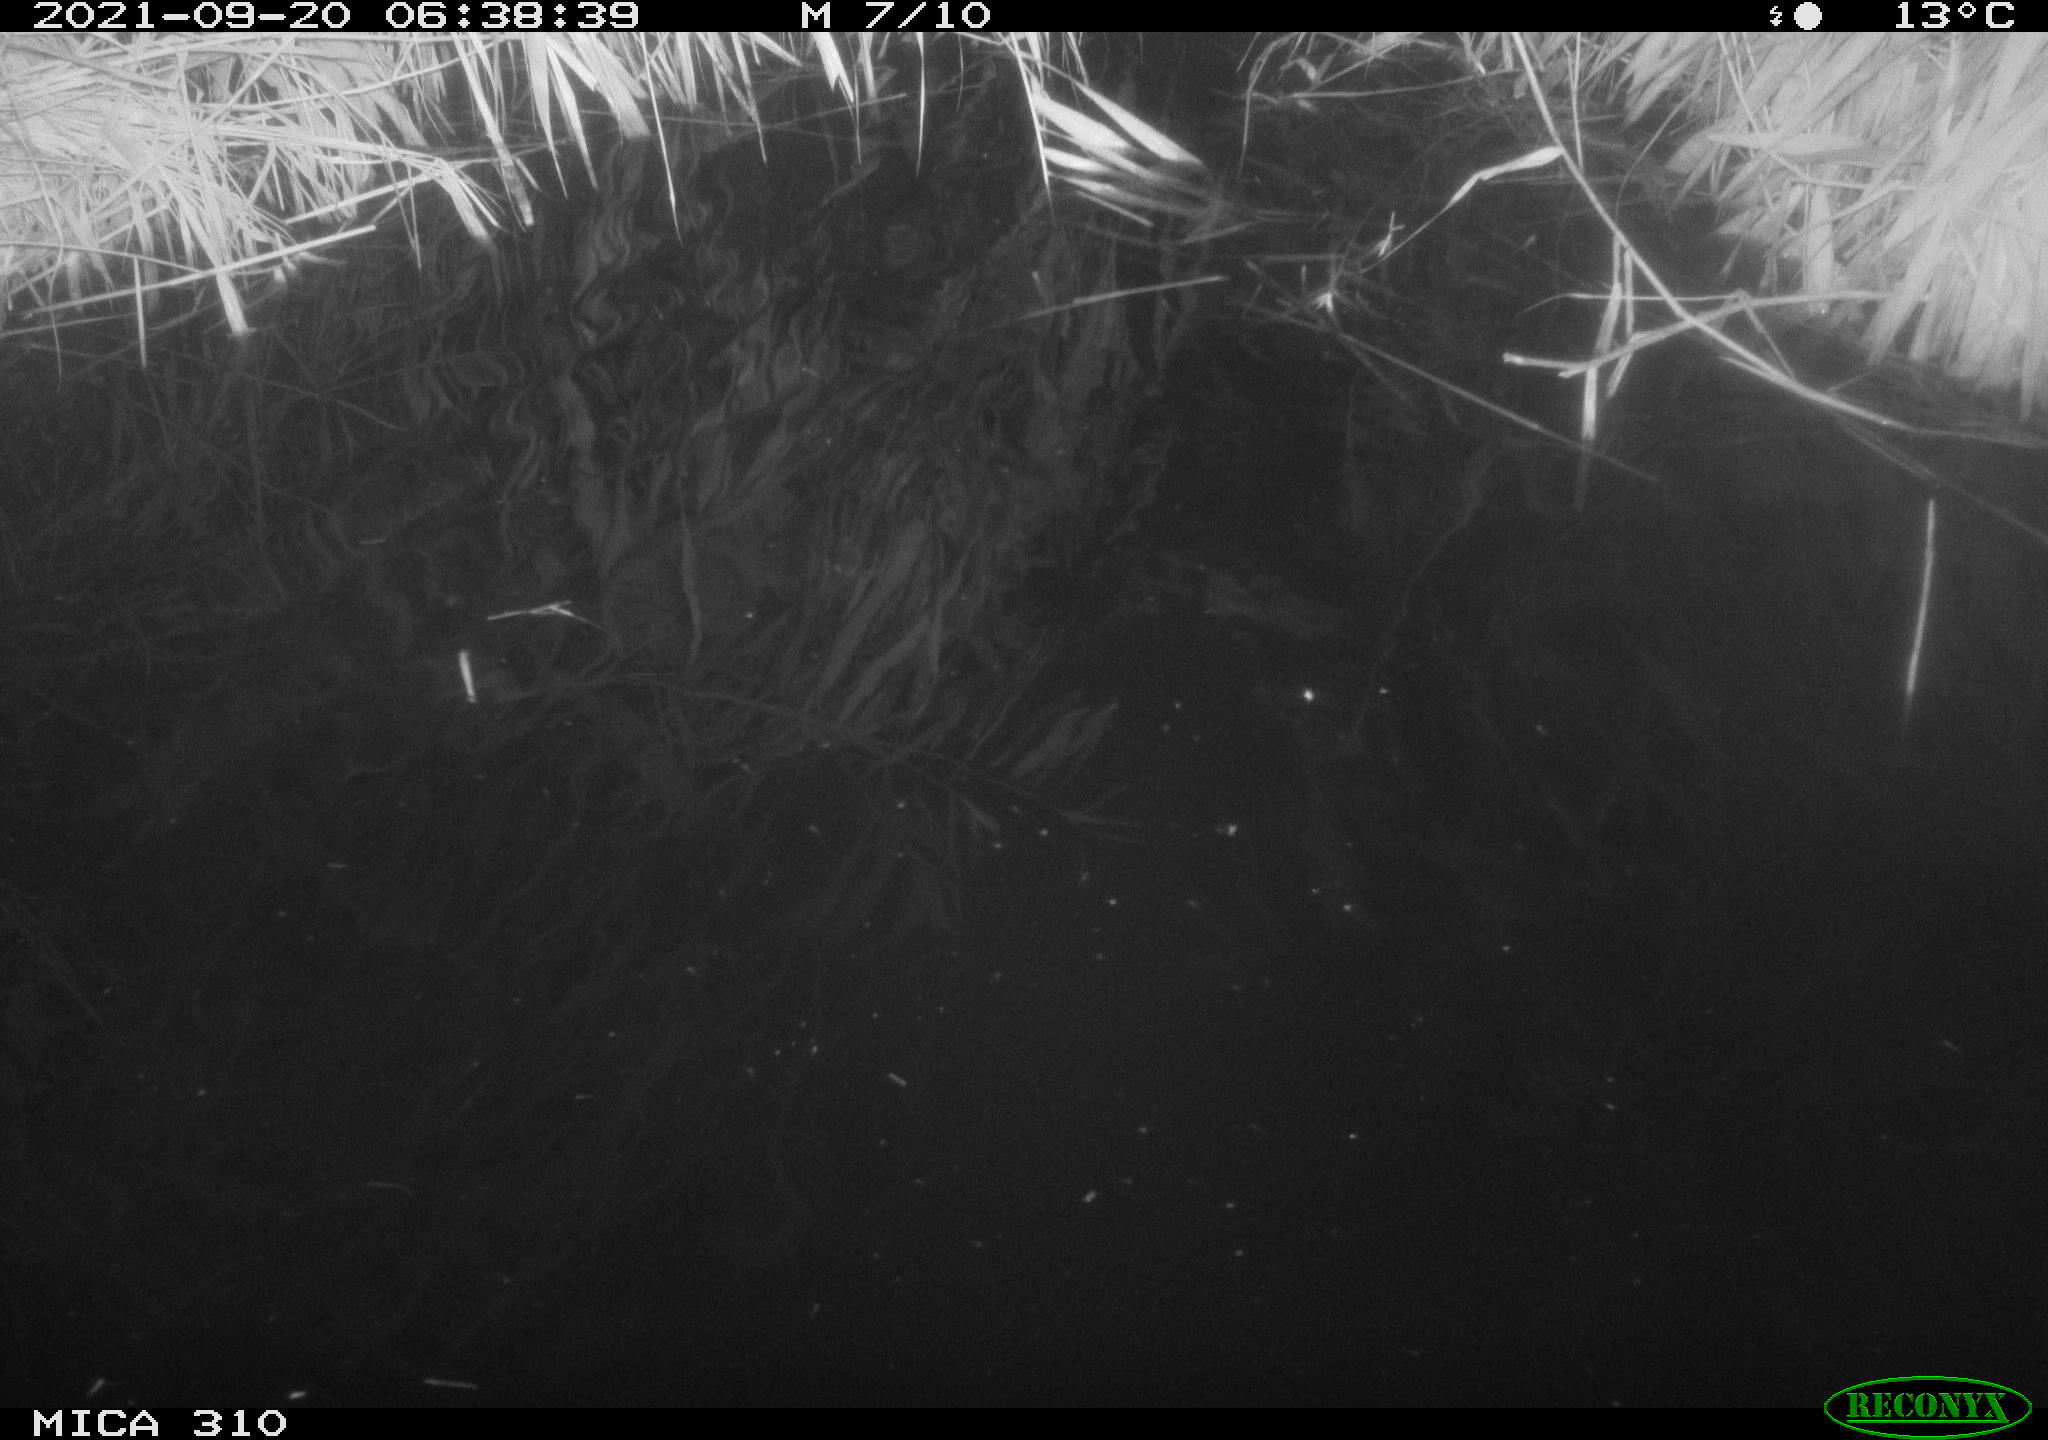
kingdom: Animalia
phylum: Chordata
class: Mammalia
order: Rodentia
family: Muridae
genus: Rattus
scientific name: Rattus norvegicus
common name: Brown rat
